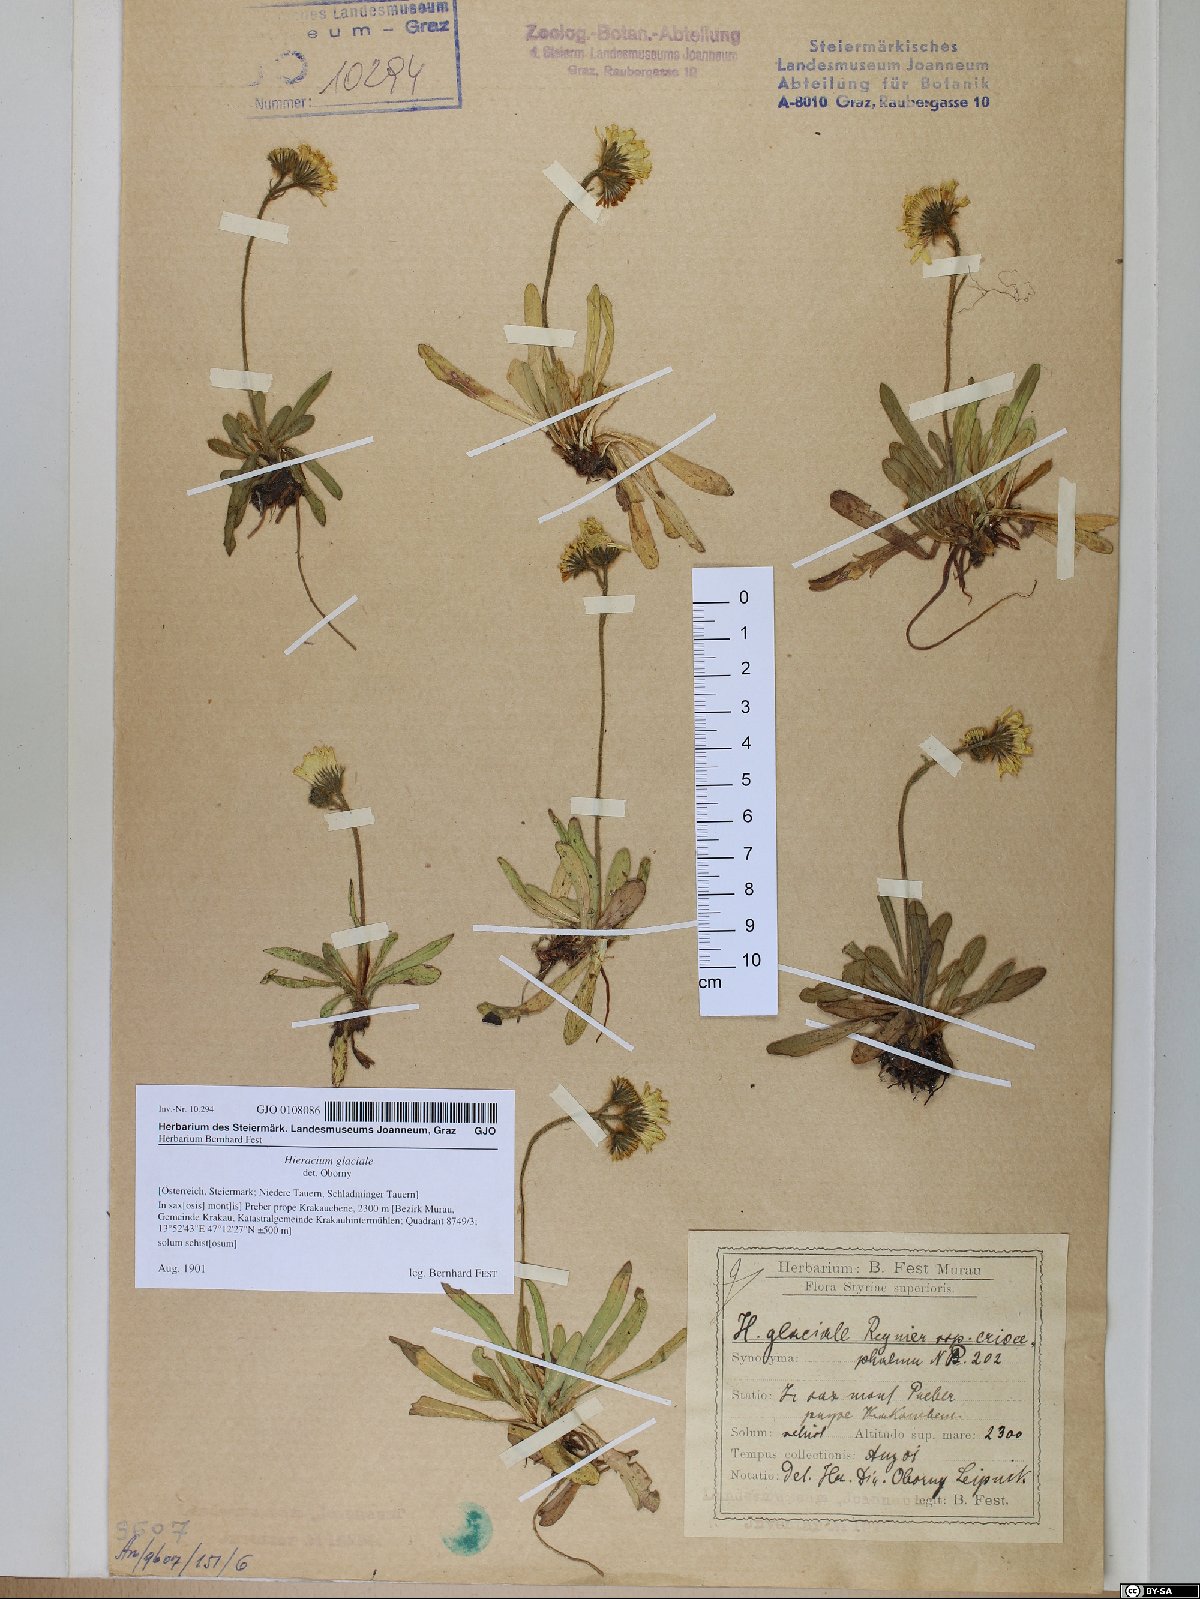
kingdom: Plantae
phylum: Tracheophyta
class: Magnoliopsida
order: Asterales
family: Asteraceae
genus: Pilosella
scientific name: Pilosella glacialis
